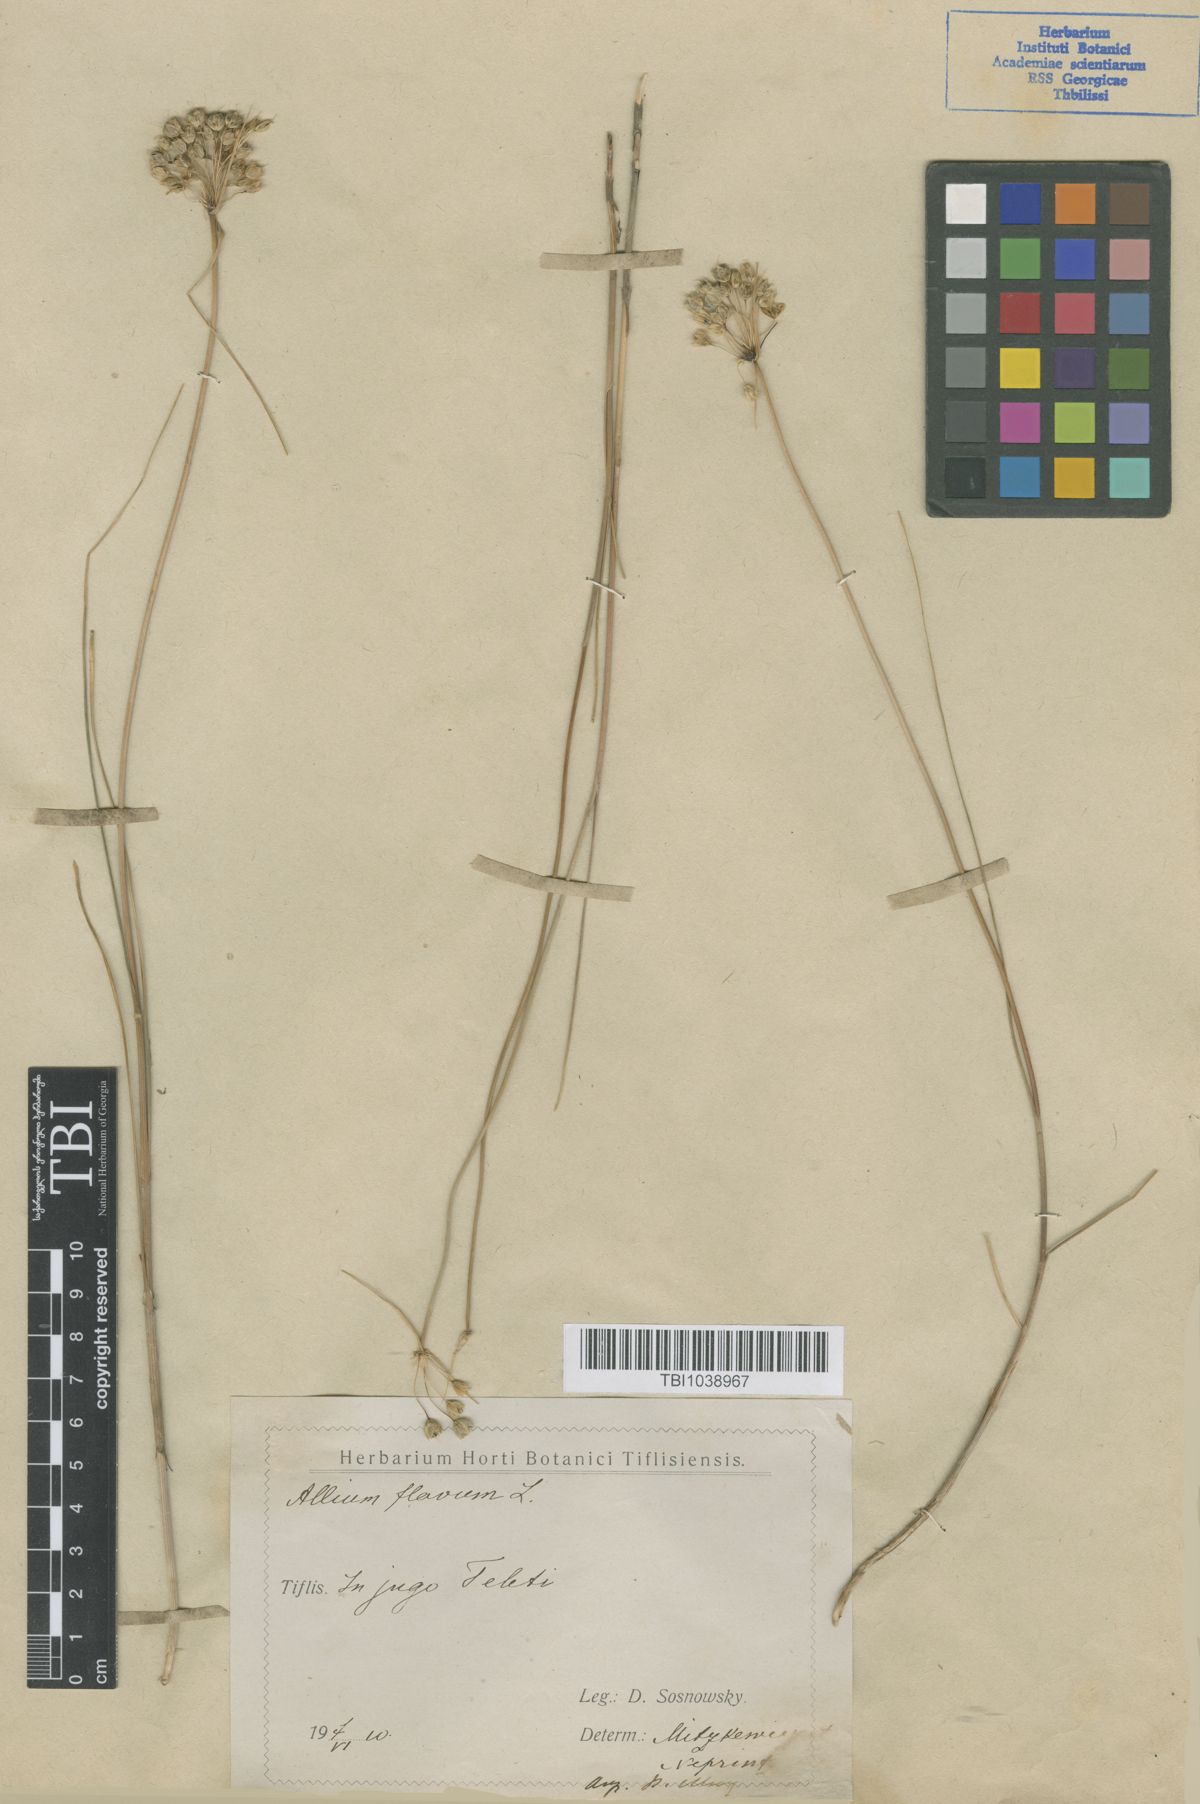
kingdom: Plantae
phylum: Tracheophyta
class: Liliopsida
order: Asparagales
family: Amaryllidaceae
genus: Allium
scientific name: Allium pseudoflavum
